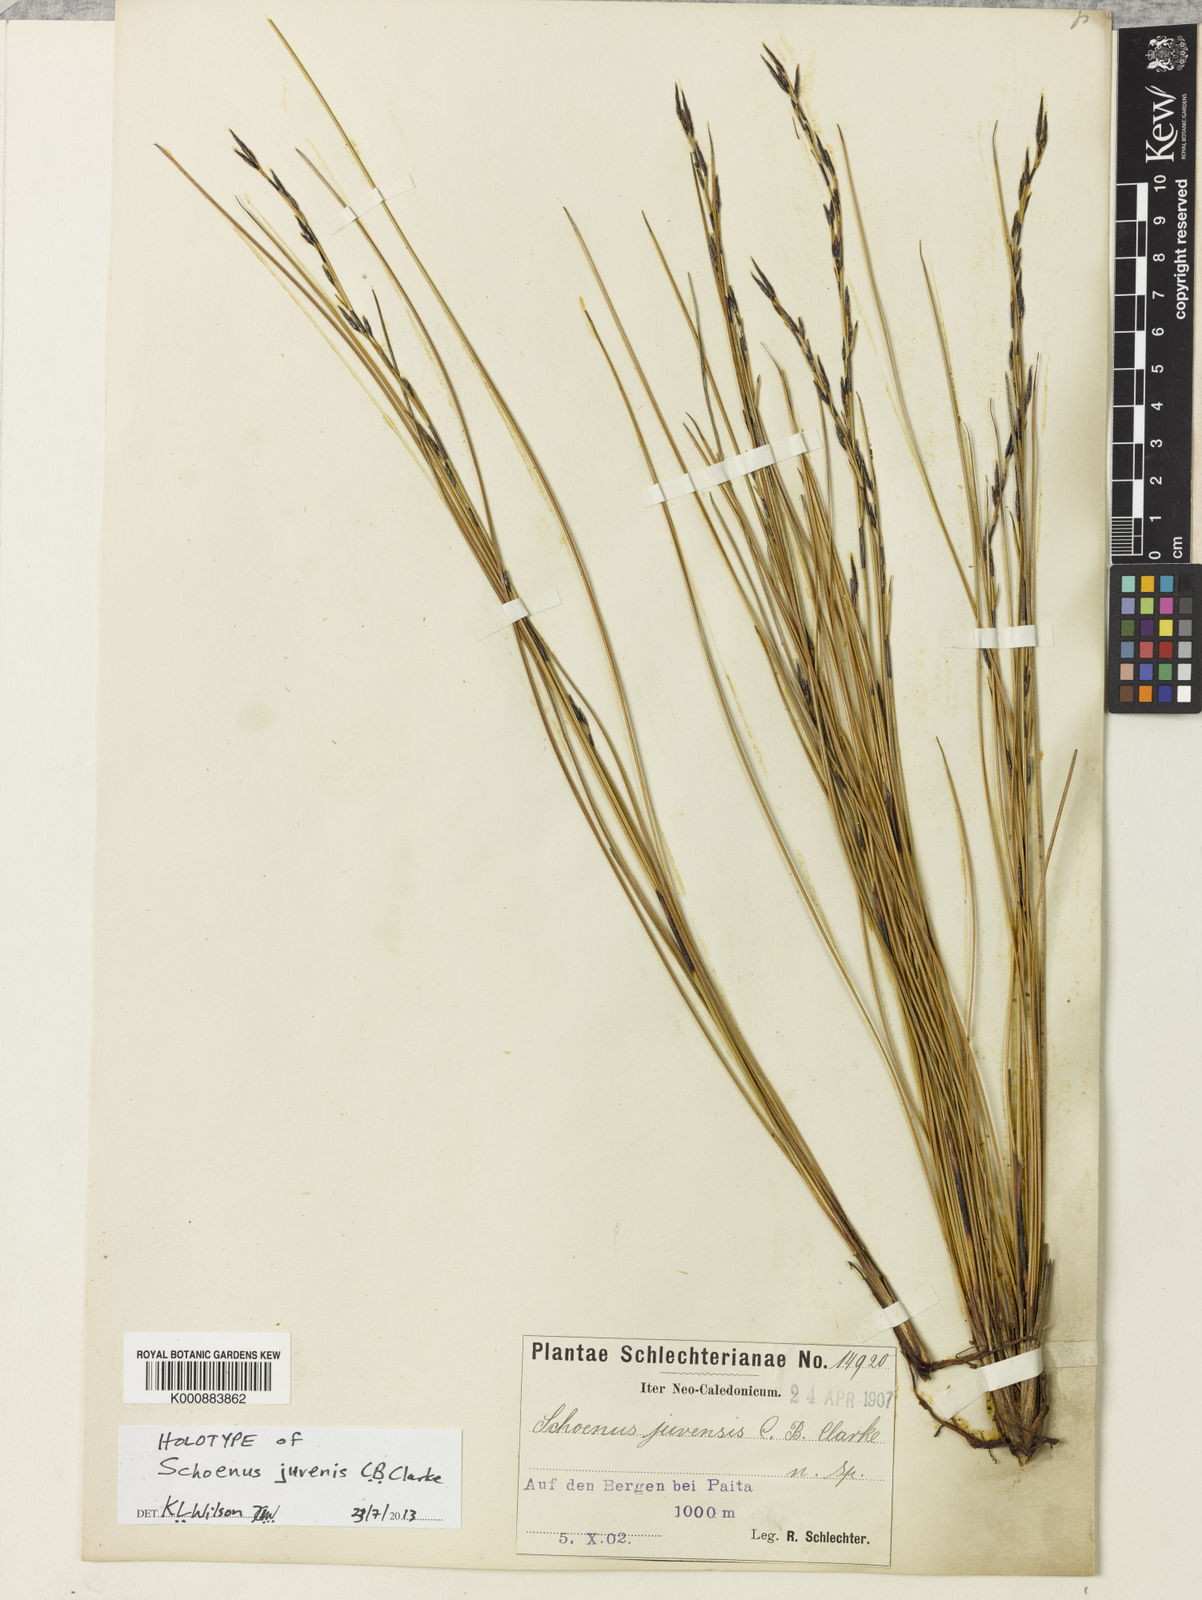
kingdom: Plantae
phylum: Tracheophyta
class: Liliopsida
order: Poales
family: Cyperaceae
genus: Schoenus
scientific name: Schoenus neocaledonicus
